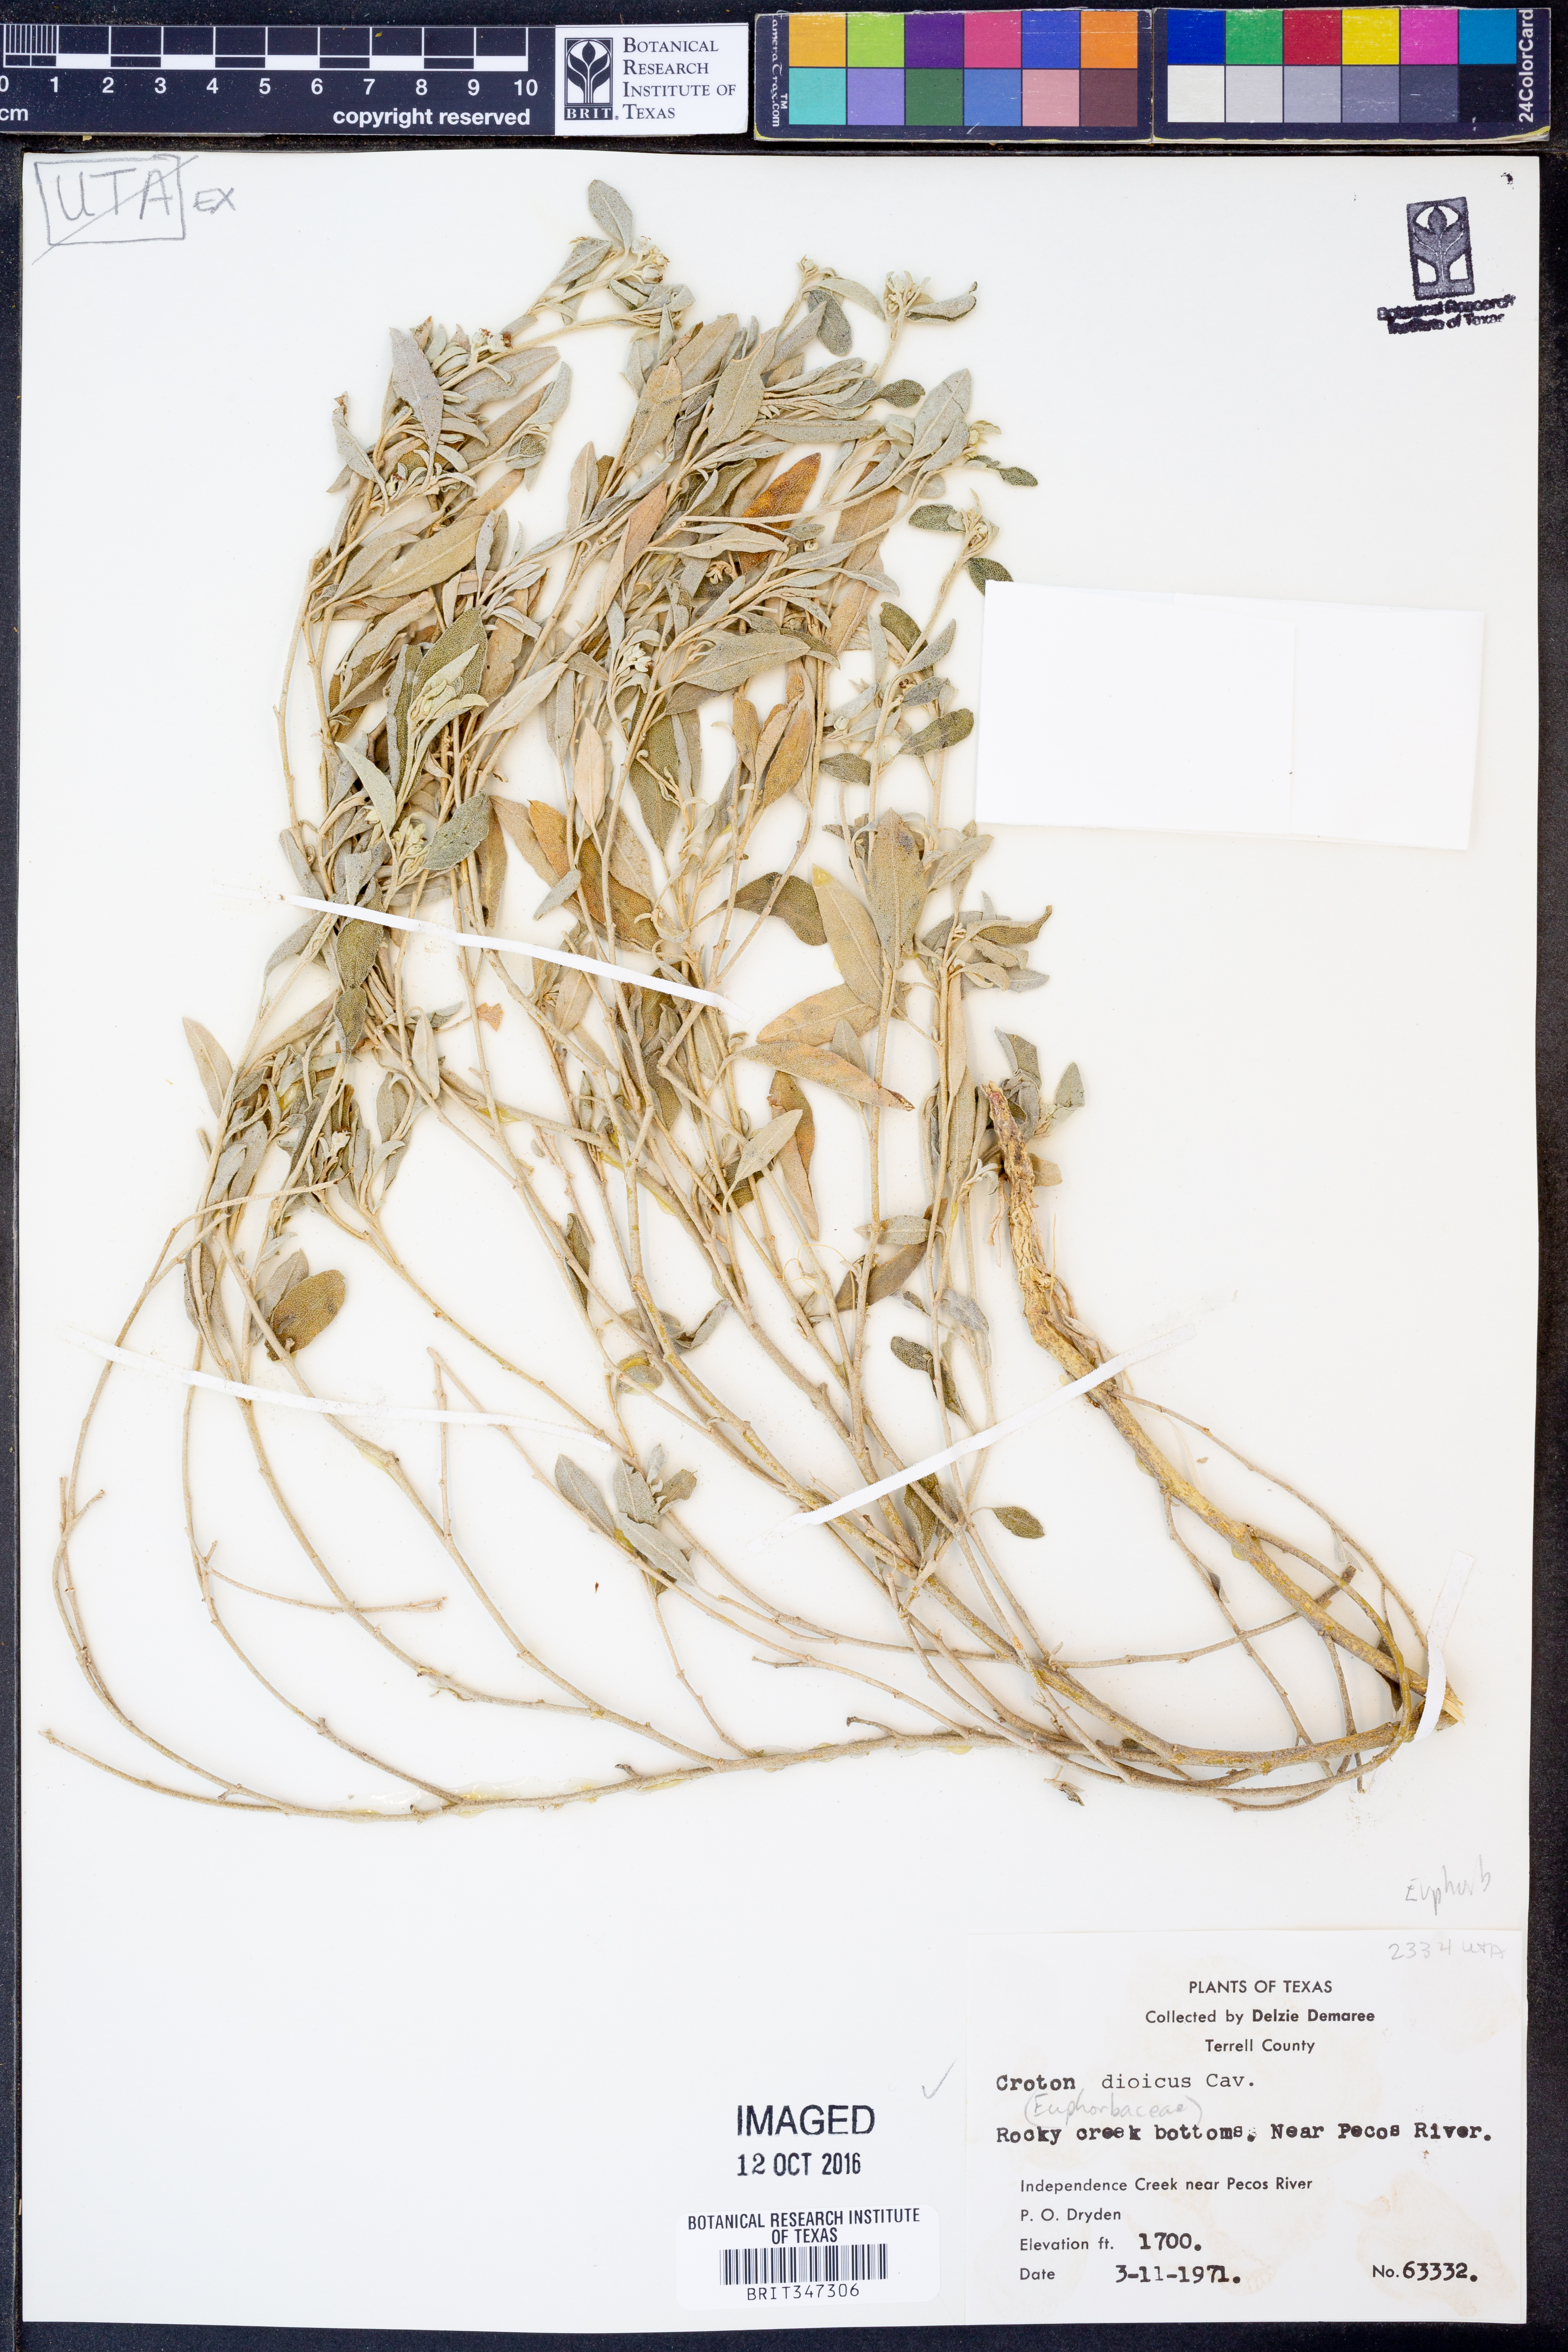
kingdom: Plantae
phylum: Tracheophyta
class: Magnoliopsida
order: Malpighiales
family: Euphorbiaceae
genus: Croton
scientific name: Croton dioicus
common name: Grassland croton
